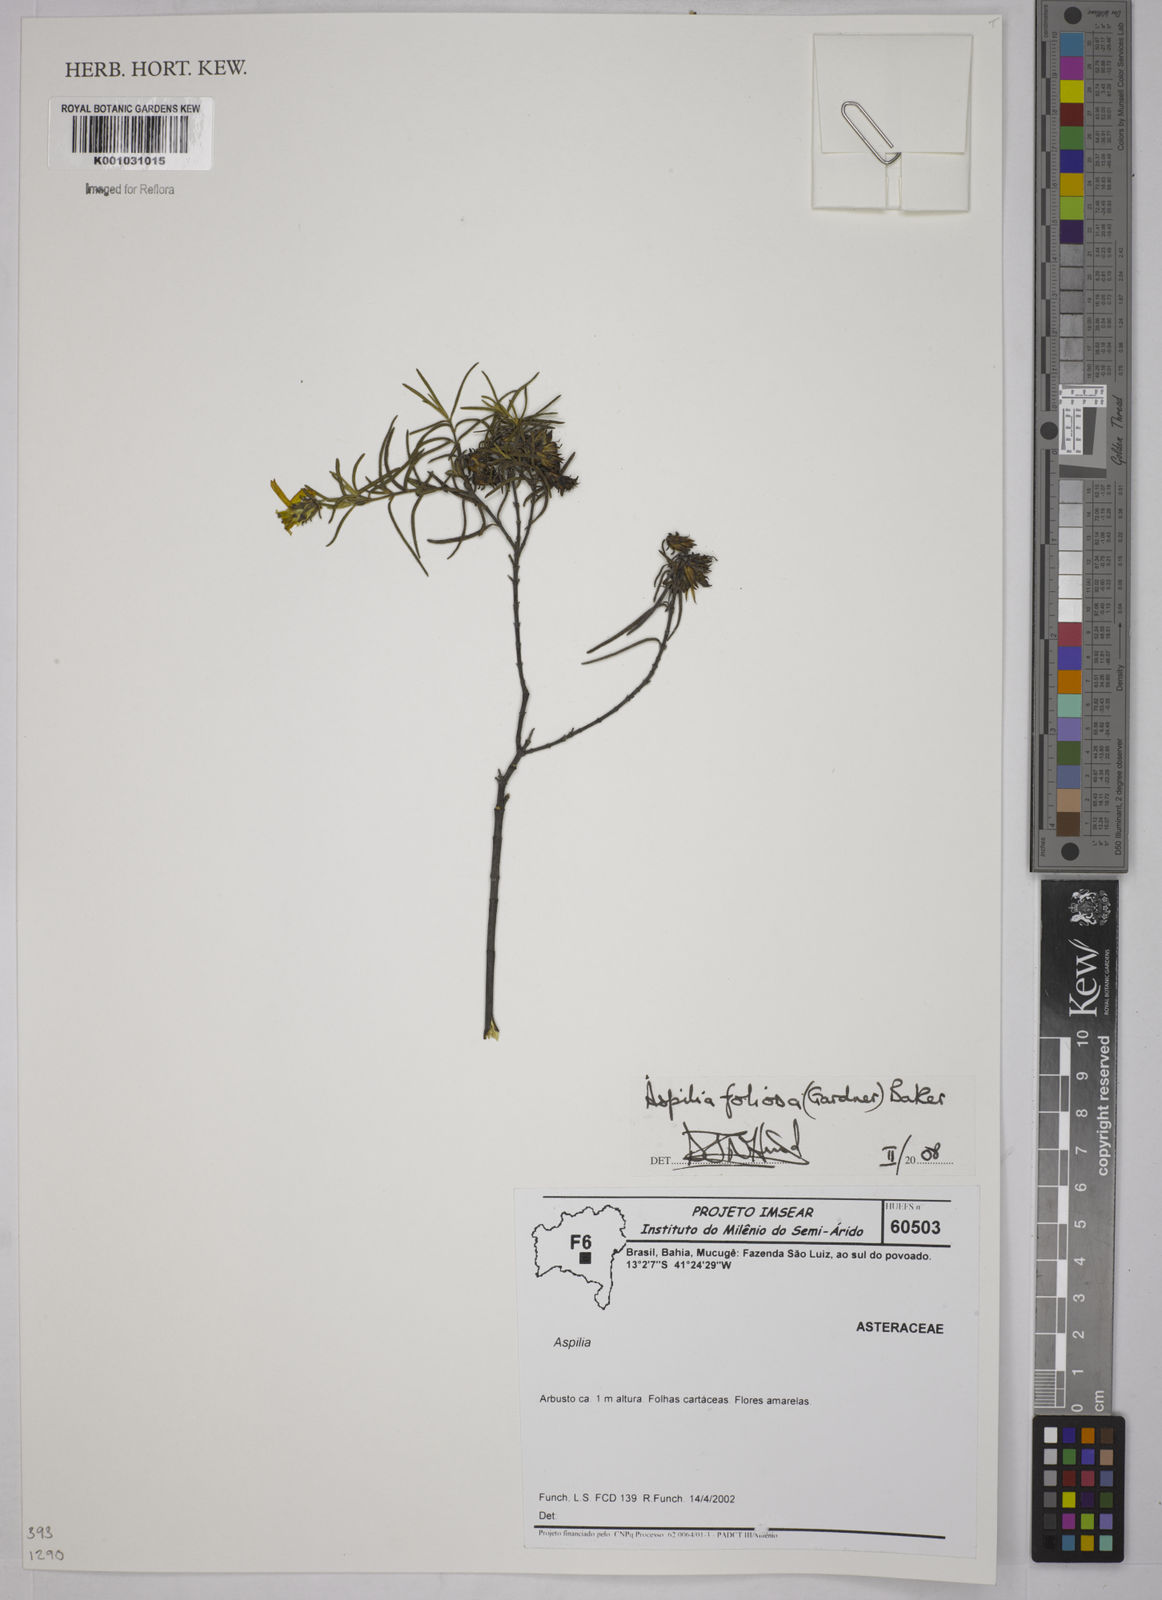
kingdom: Plantae
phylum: Tracheophyta
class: Magnoliopsida
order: Asterales
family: Asteraceae
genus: Aspilia
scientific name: Aspilia
